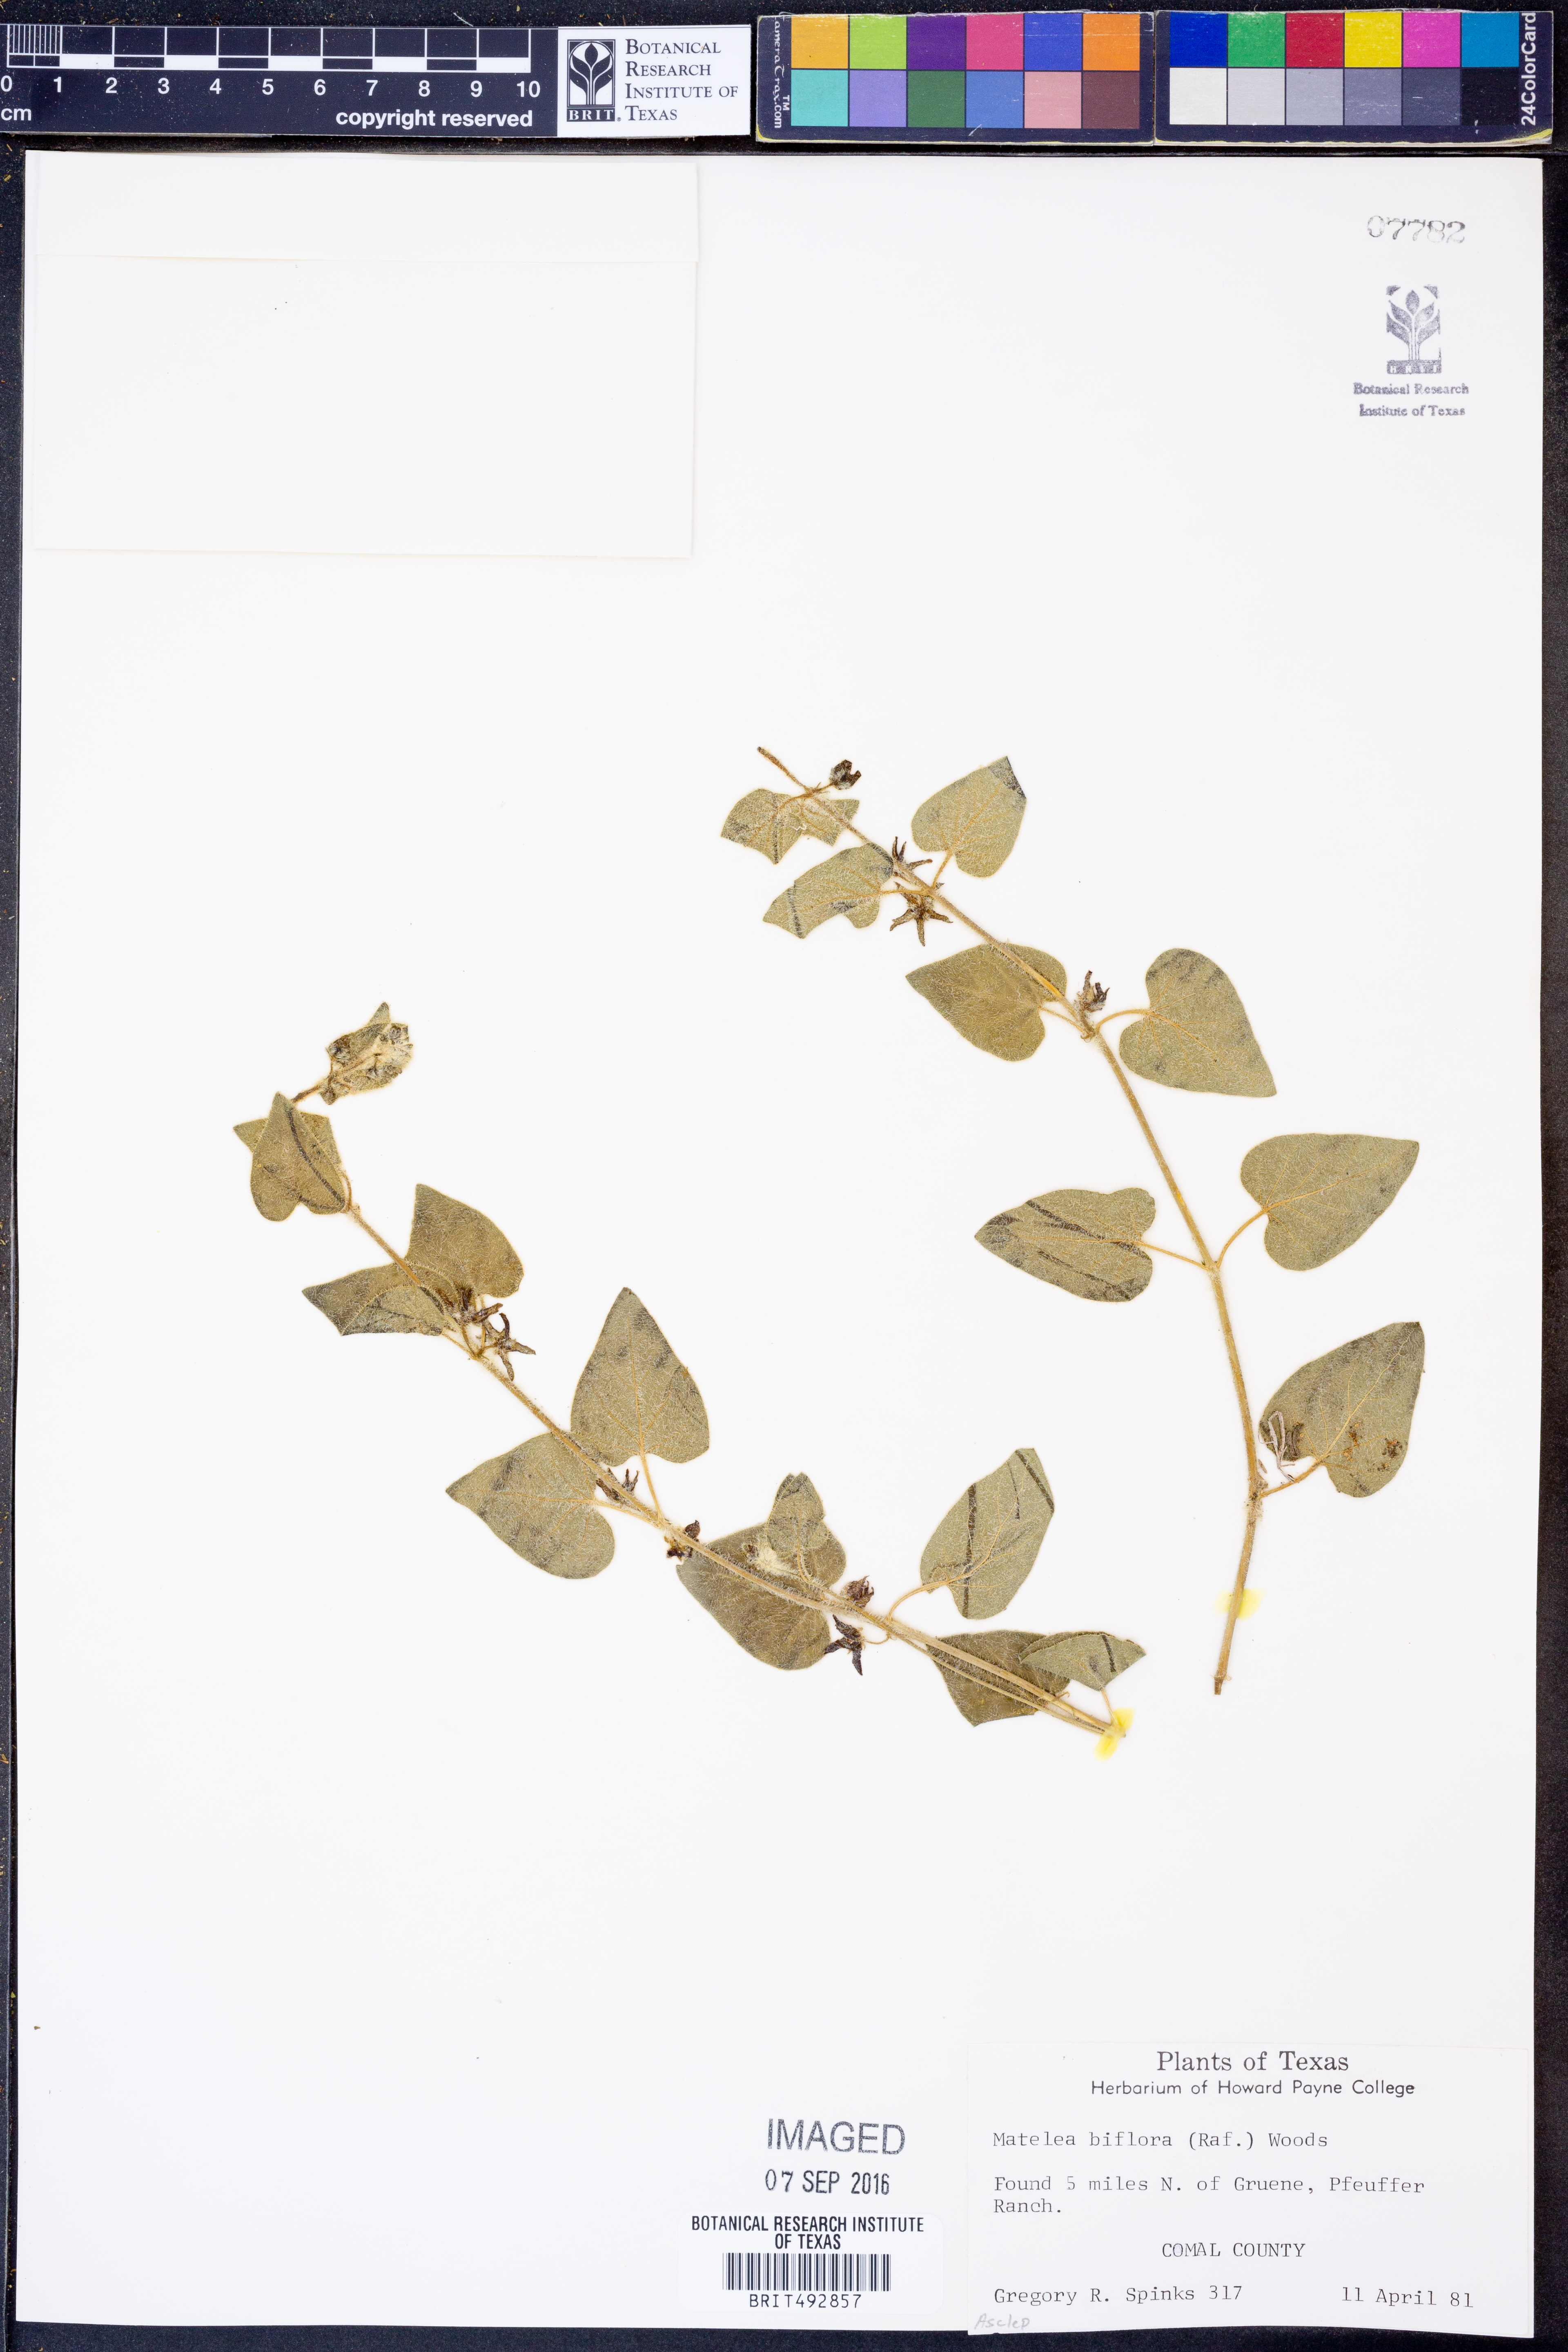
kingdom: Plantae
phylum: Tracheophyta
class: Magnoliopsida
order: Gentianales
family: Apocynaceae
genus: Chthamalia
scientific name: Chthamalia biflora
